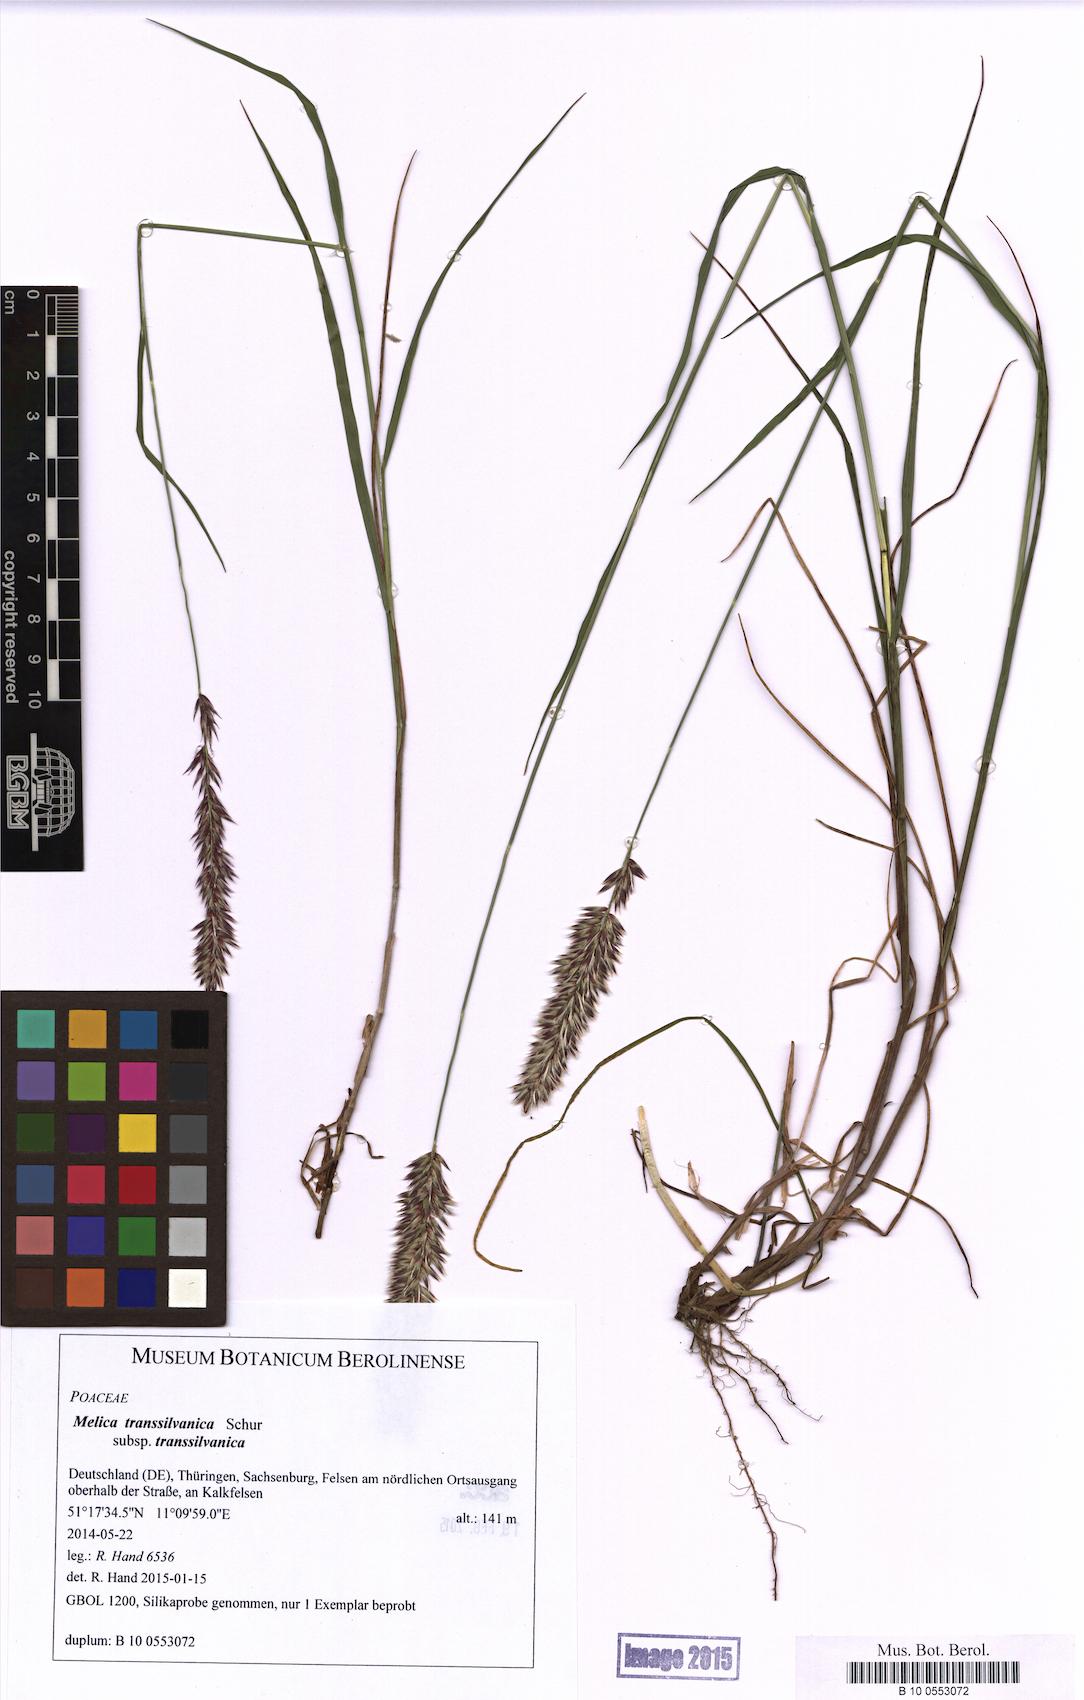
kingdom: Plantae
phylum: Tracheophyta
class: Liliopsida
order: Poales
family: Poaceae
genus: Melica
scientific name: Melica transsilvanica
